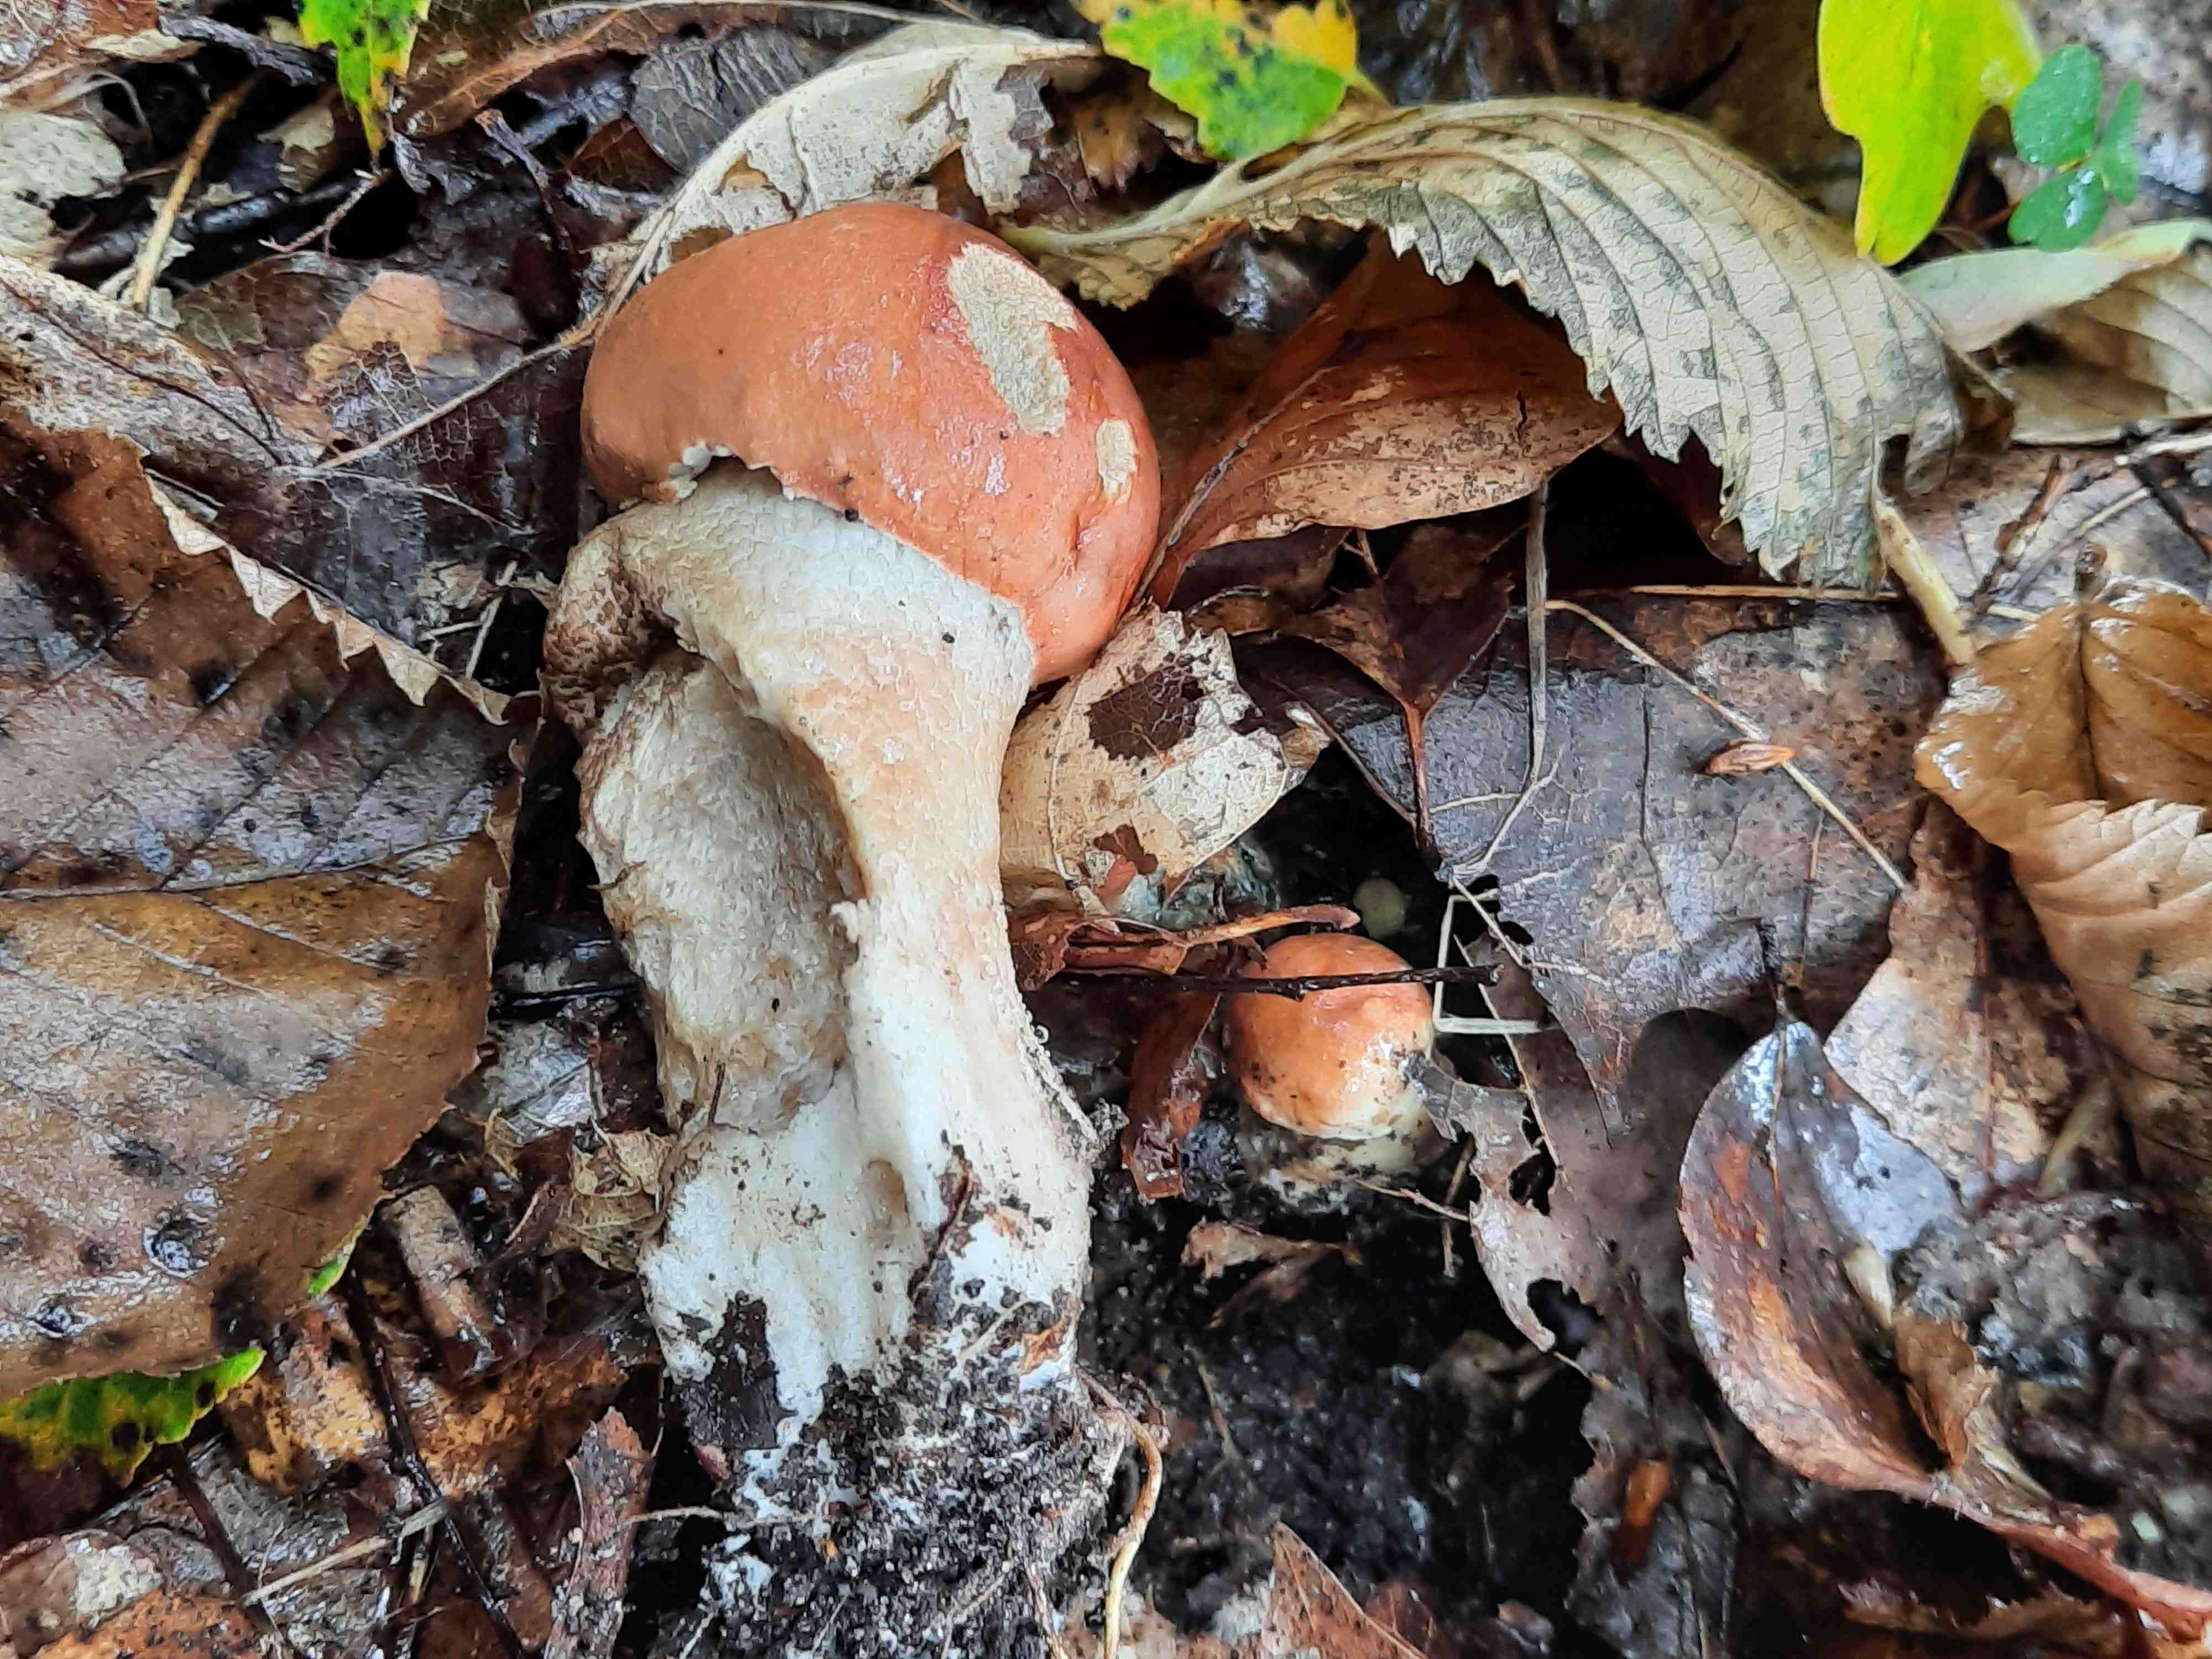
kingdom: Fungi
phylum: Basidiomycota
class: Agaricomycetes
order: Boletales
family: Boletaceae
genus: Leccinum
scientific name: Leccinum albostipitatum
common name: aspe-skælrørhat
